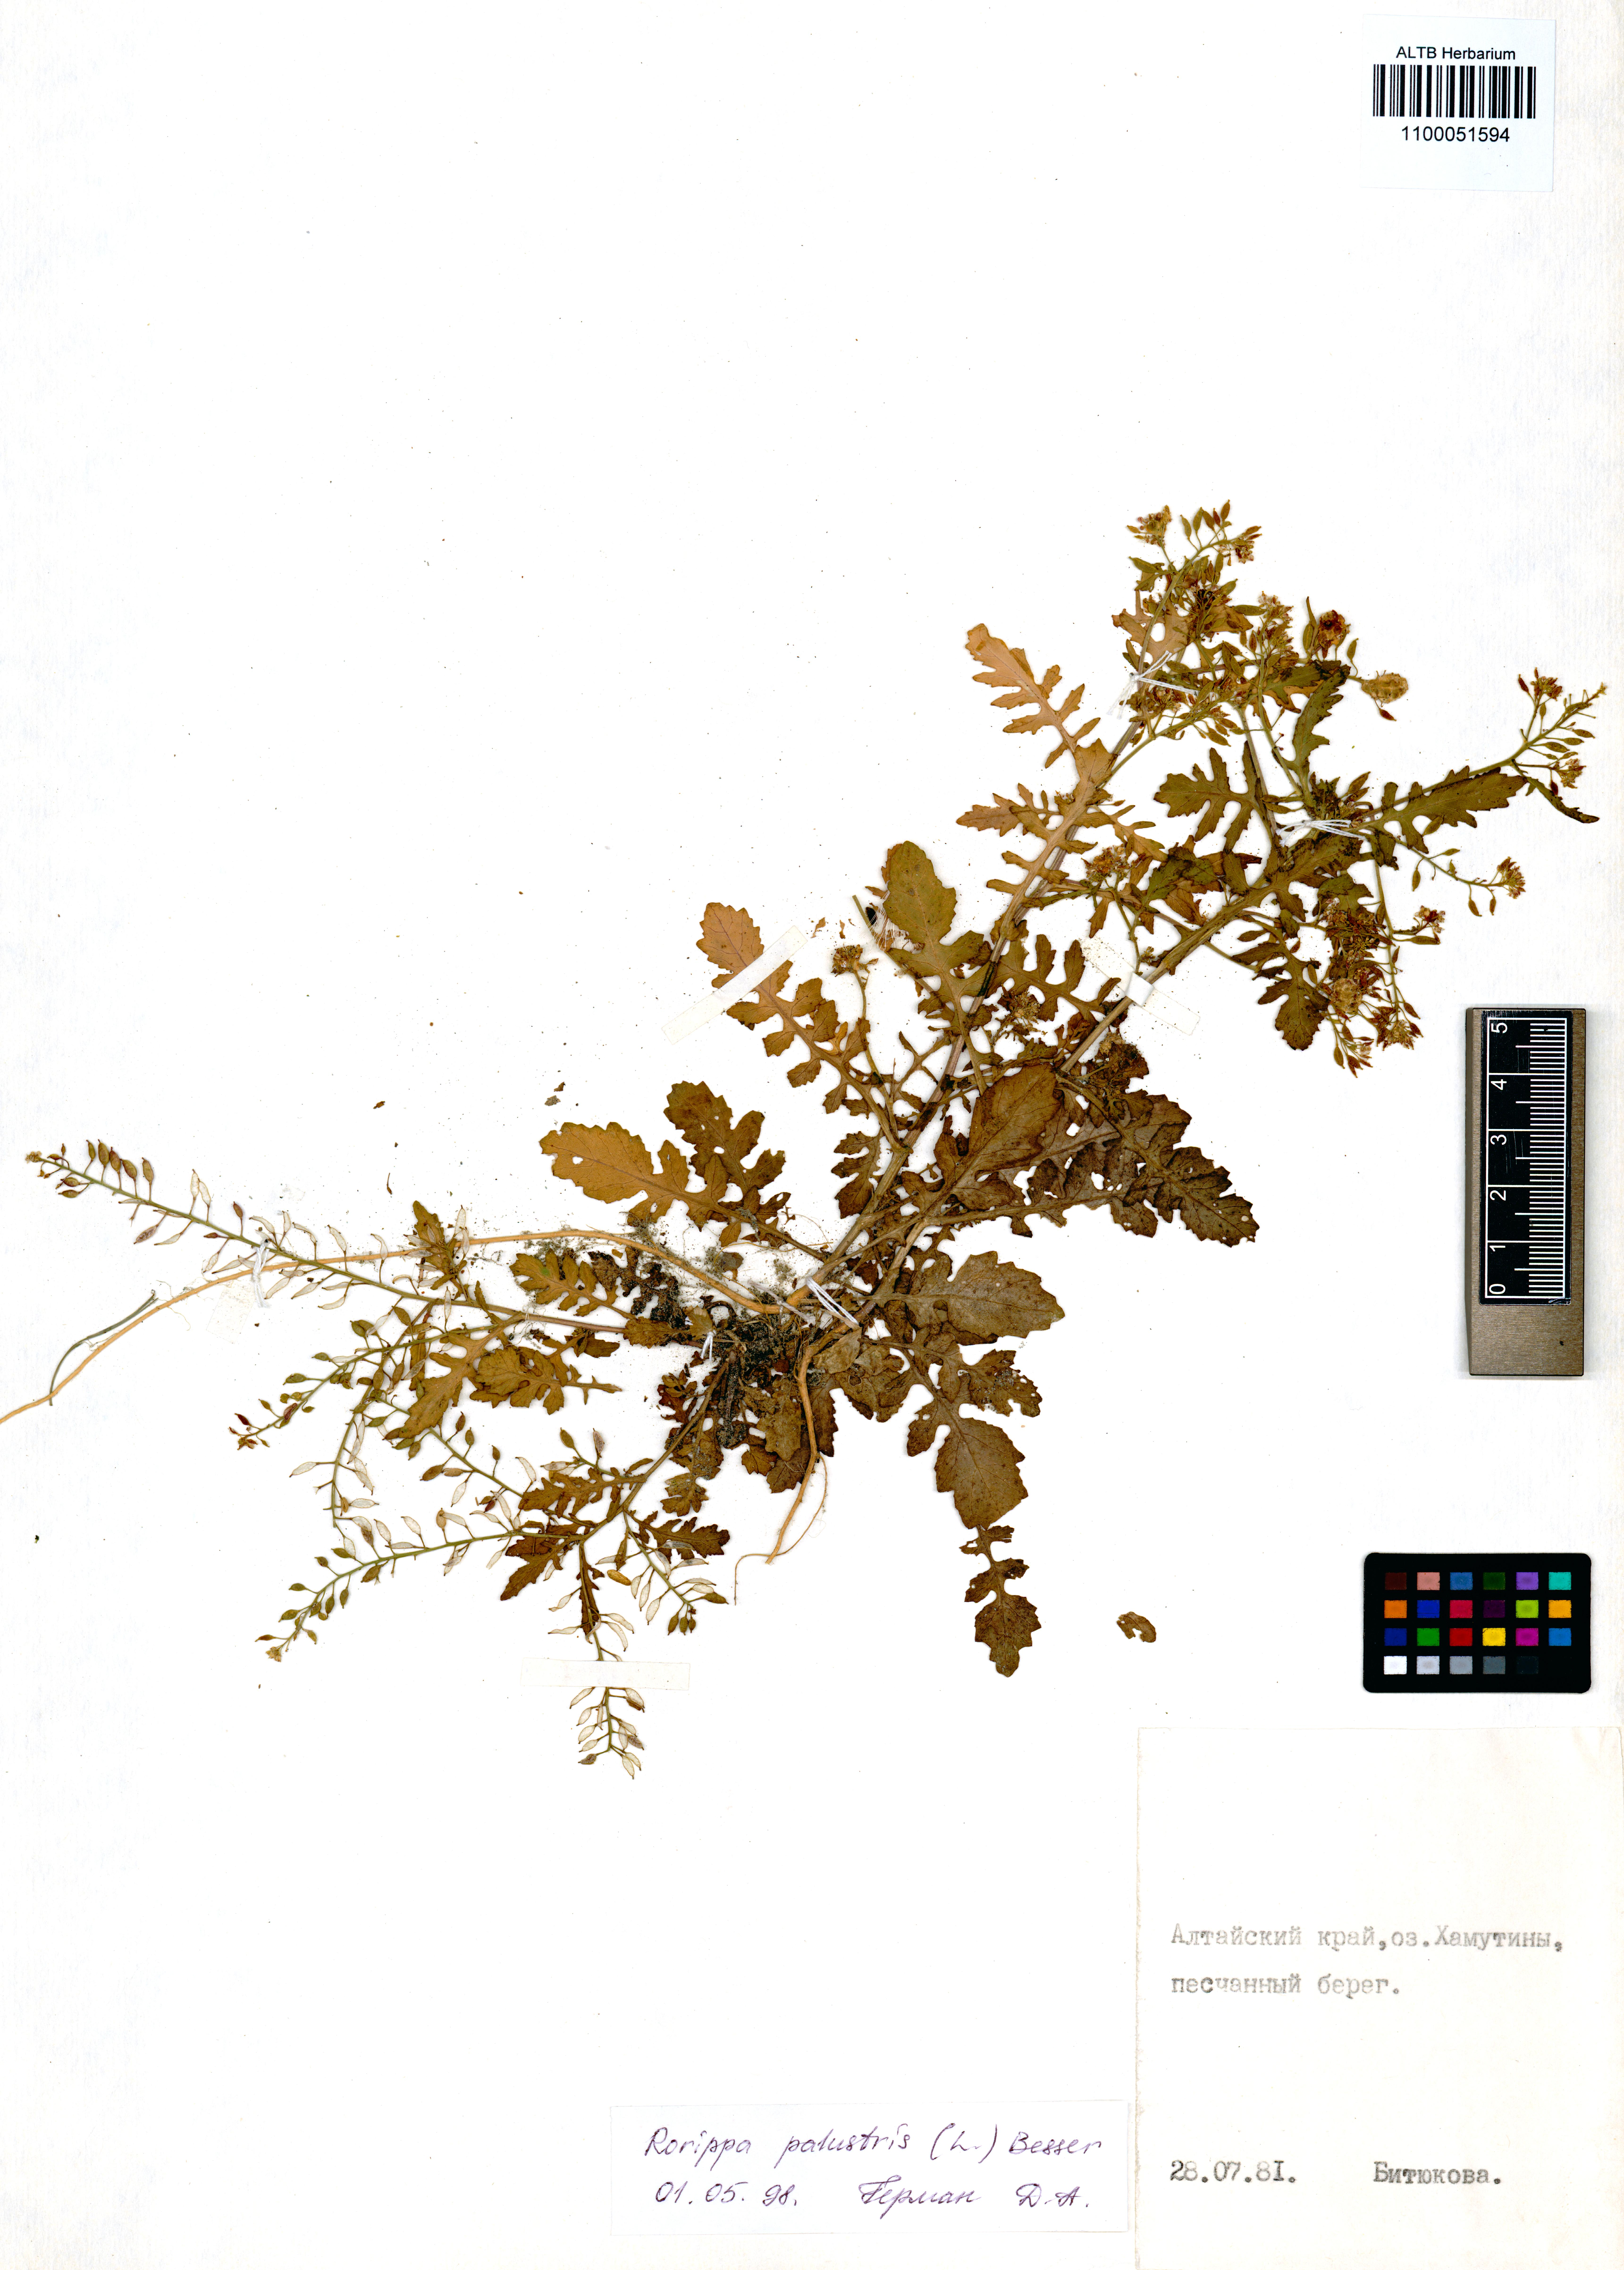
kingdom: Plantae
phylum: Tracheophyta
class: Magnoliopsida
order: Brassicales
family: Brassicaceae
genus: Rorippa
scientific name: Rorippa palustris
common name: Marsh yellow-cress
